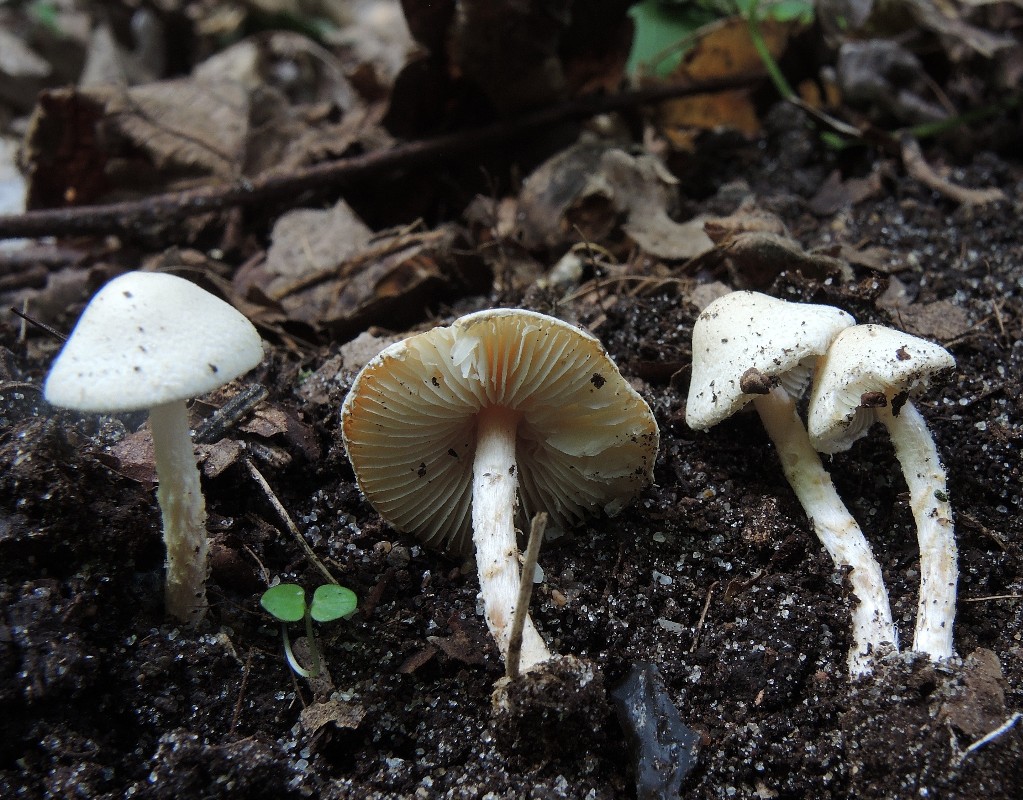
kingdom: Fungi
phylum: Basidiomycota
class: Agaricomycetes
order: Agaricales
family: Agaricaceae
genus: Lepiota
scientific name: Lepiota subalba
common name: hvidlig parasolhat
